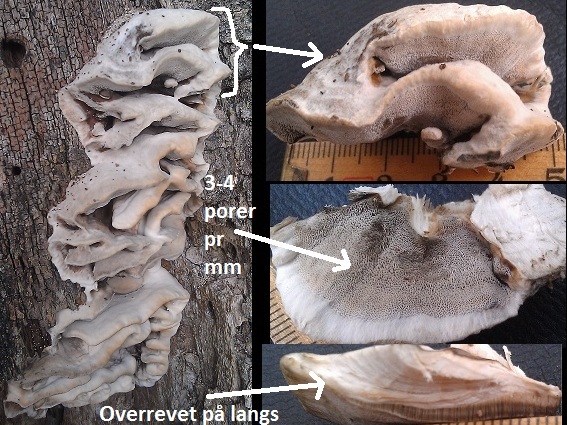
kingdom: Fungi
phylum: Basidiomycota
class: Agaricomycetes
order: Polyporales
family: Phanerochaetaceae
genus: Bjerkandera
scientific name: Bjerkandera adusta
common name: sveden sodporesvamp
